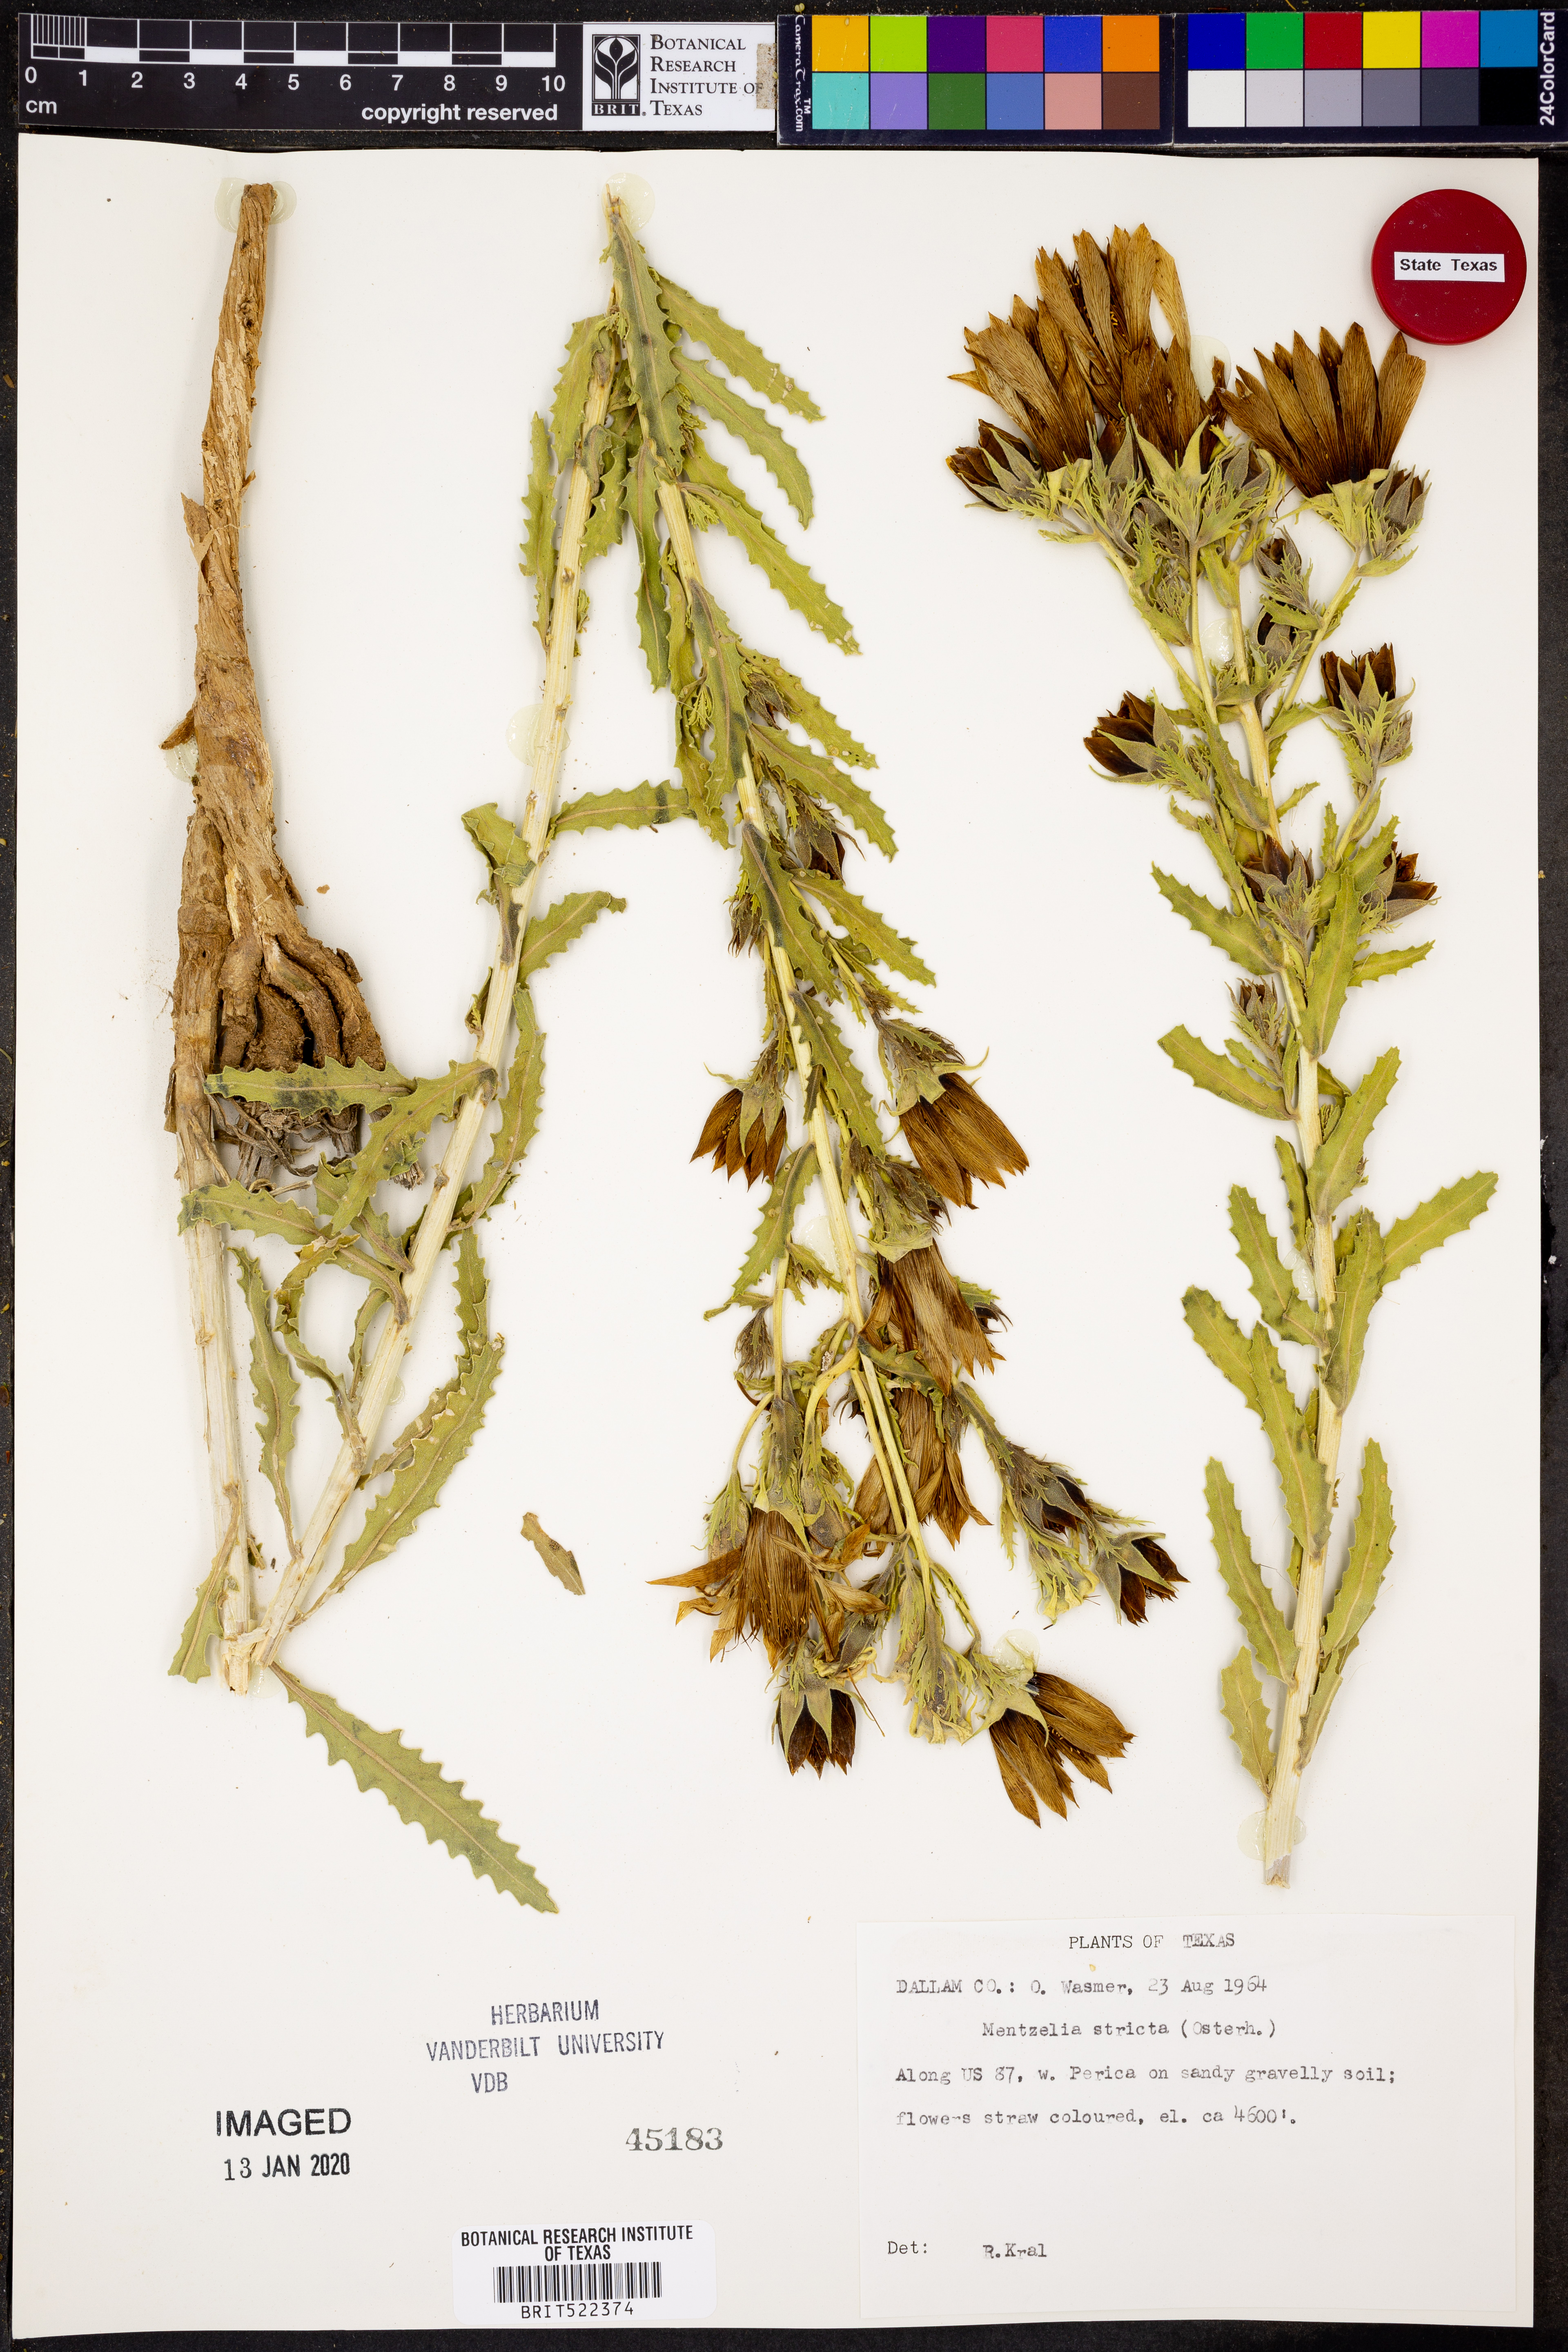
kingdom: Plantae
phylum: Tracheophyta
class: Magnoliopsida
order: Cornales
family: Loasaceae
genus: Mentzelia
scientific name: Mentzelia nuda
